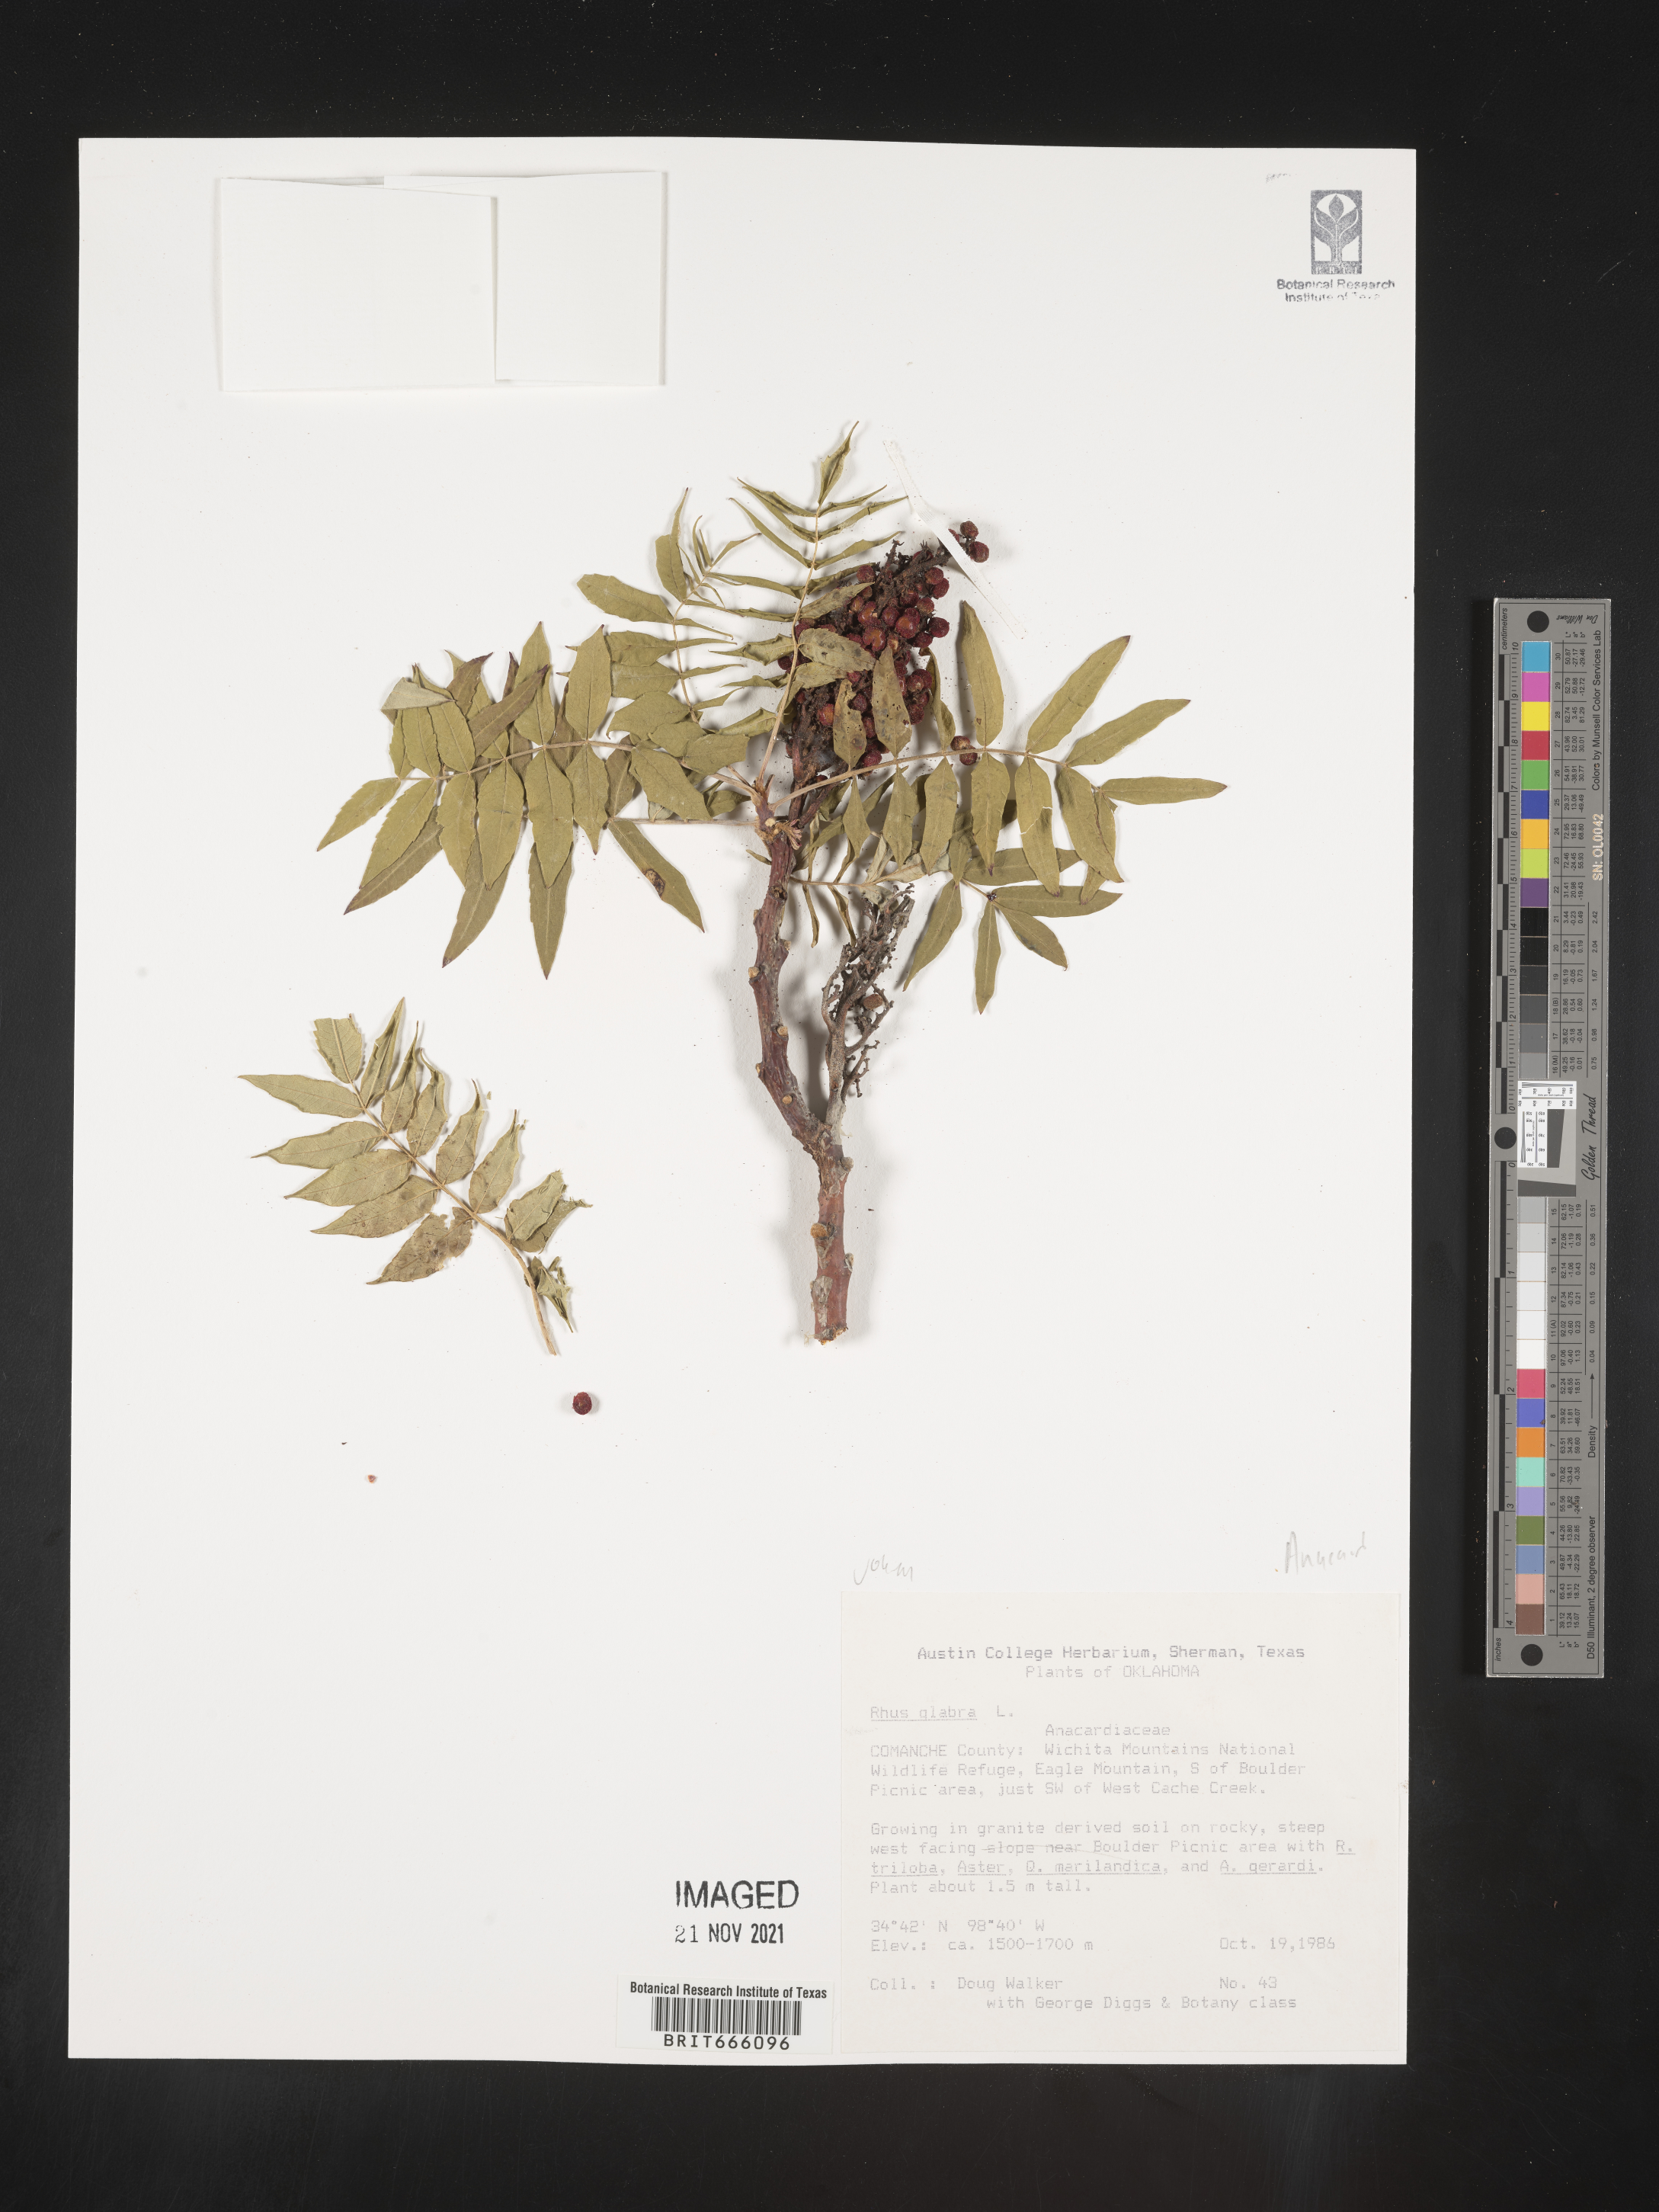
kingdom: Plantae
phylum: Tracheophyta
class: Magnoliopsida
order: Sapindales
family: Anacardiaceae
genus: Rhus
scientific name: Rhus glabra
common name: Scarlet sumac
